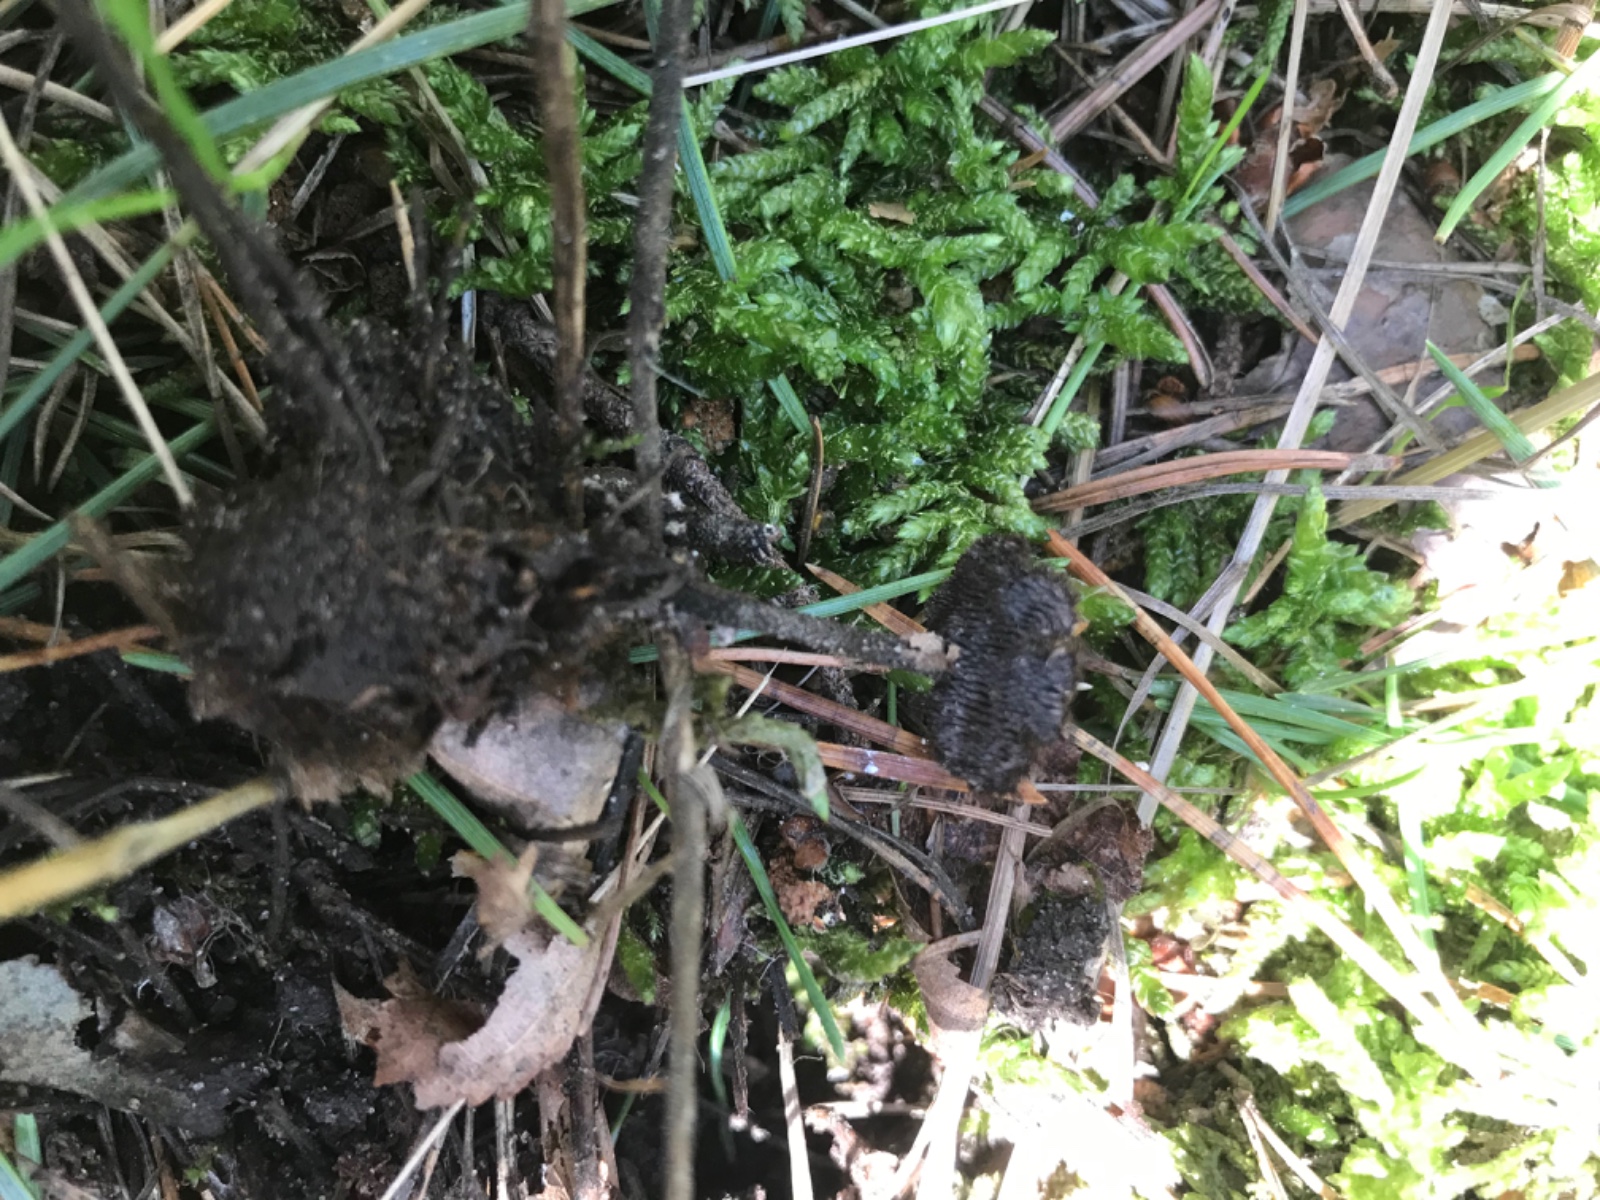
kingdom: Fungi
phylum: Basidiomycota
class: Agaricomycetes
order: Russulales
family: Auriscalpiaceae
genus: Auriscalpium
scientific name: Auriscalpium vulgare
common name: koglepigsvamp
